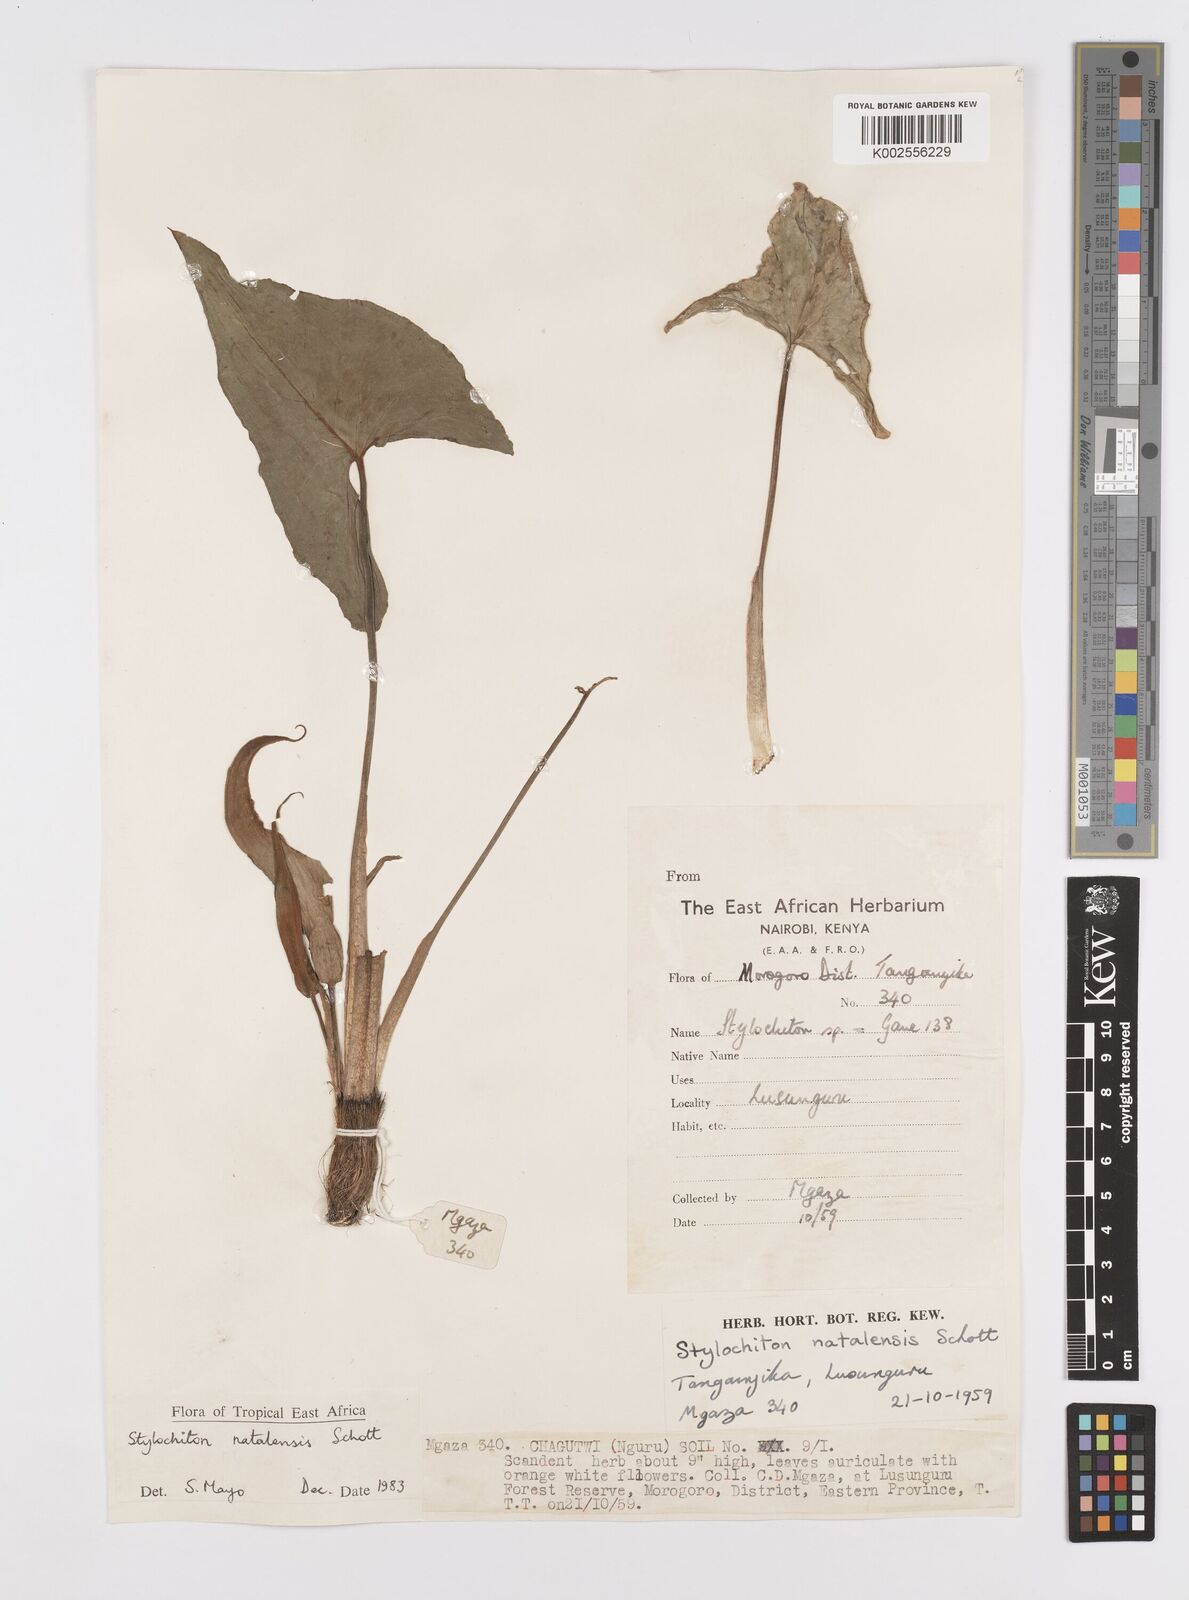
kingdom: Plantae
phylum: Tracheophyta
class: Liliopsida
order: Alismatales
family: Araceae
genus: Stylochaeton
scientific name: Stylochaeton natalense
